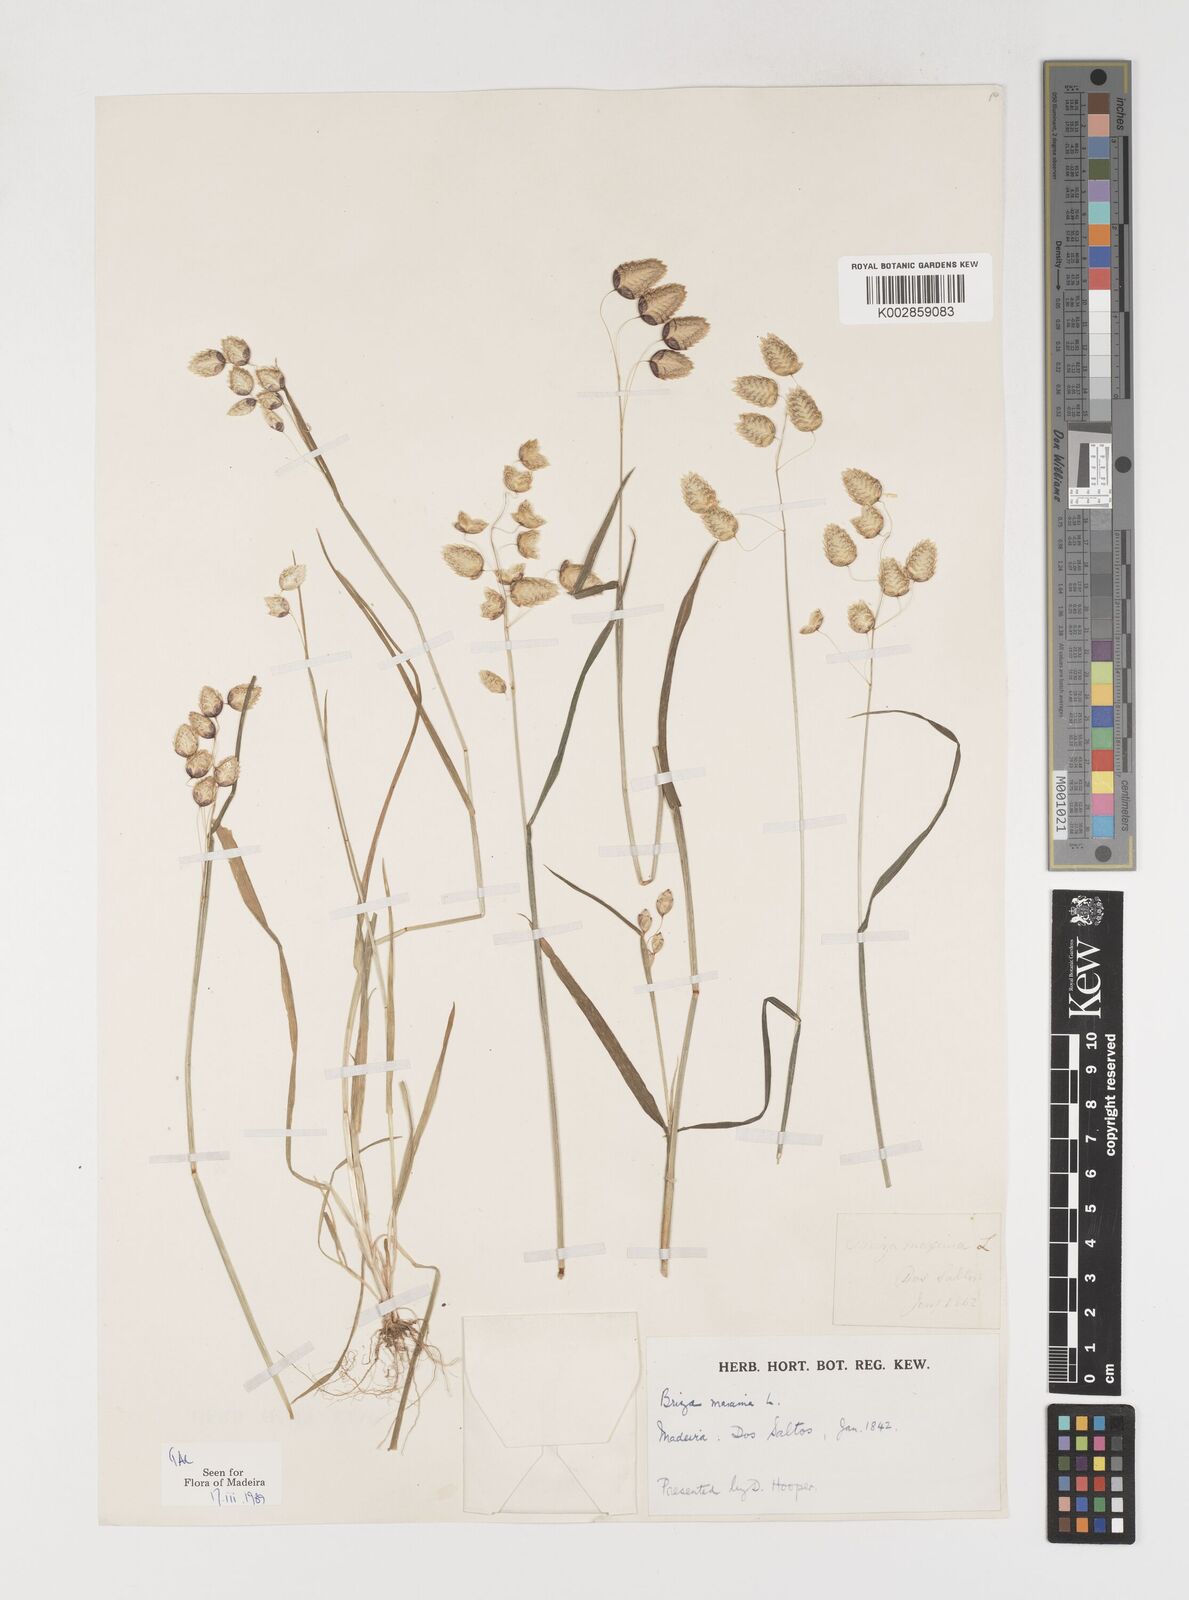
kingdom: Plantae
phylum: Tracheophyta
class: Liliopsida
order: Poales
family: Poaceae
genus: Briza
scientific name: Briza maxima
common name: Big quakinggrass
